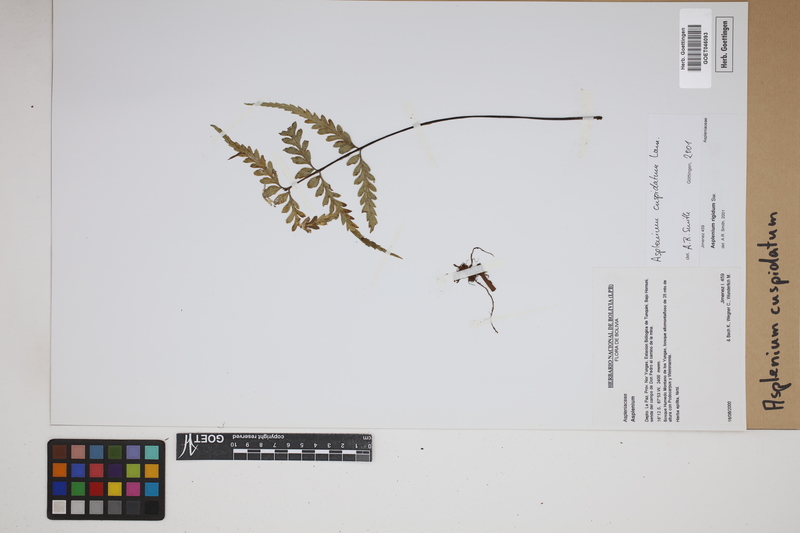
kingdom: Plantae
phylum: Tracheophyta
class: Polypodiopsida
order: Polypodiales
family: Aspleniaceae
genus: Asplenium
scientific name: Asplenium cuspidatum
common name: Eared spleenwort
